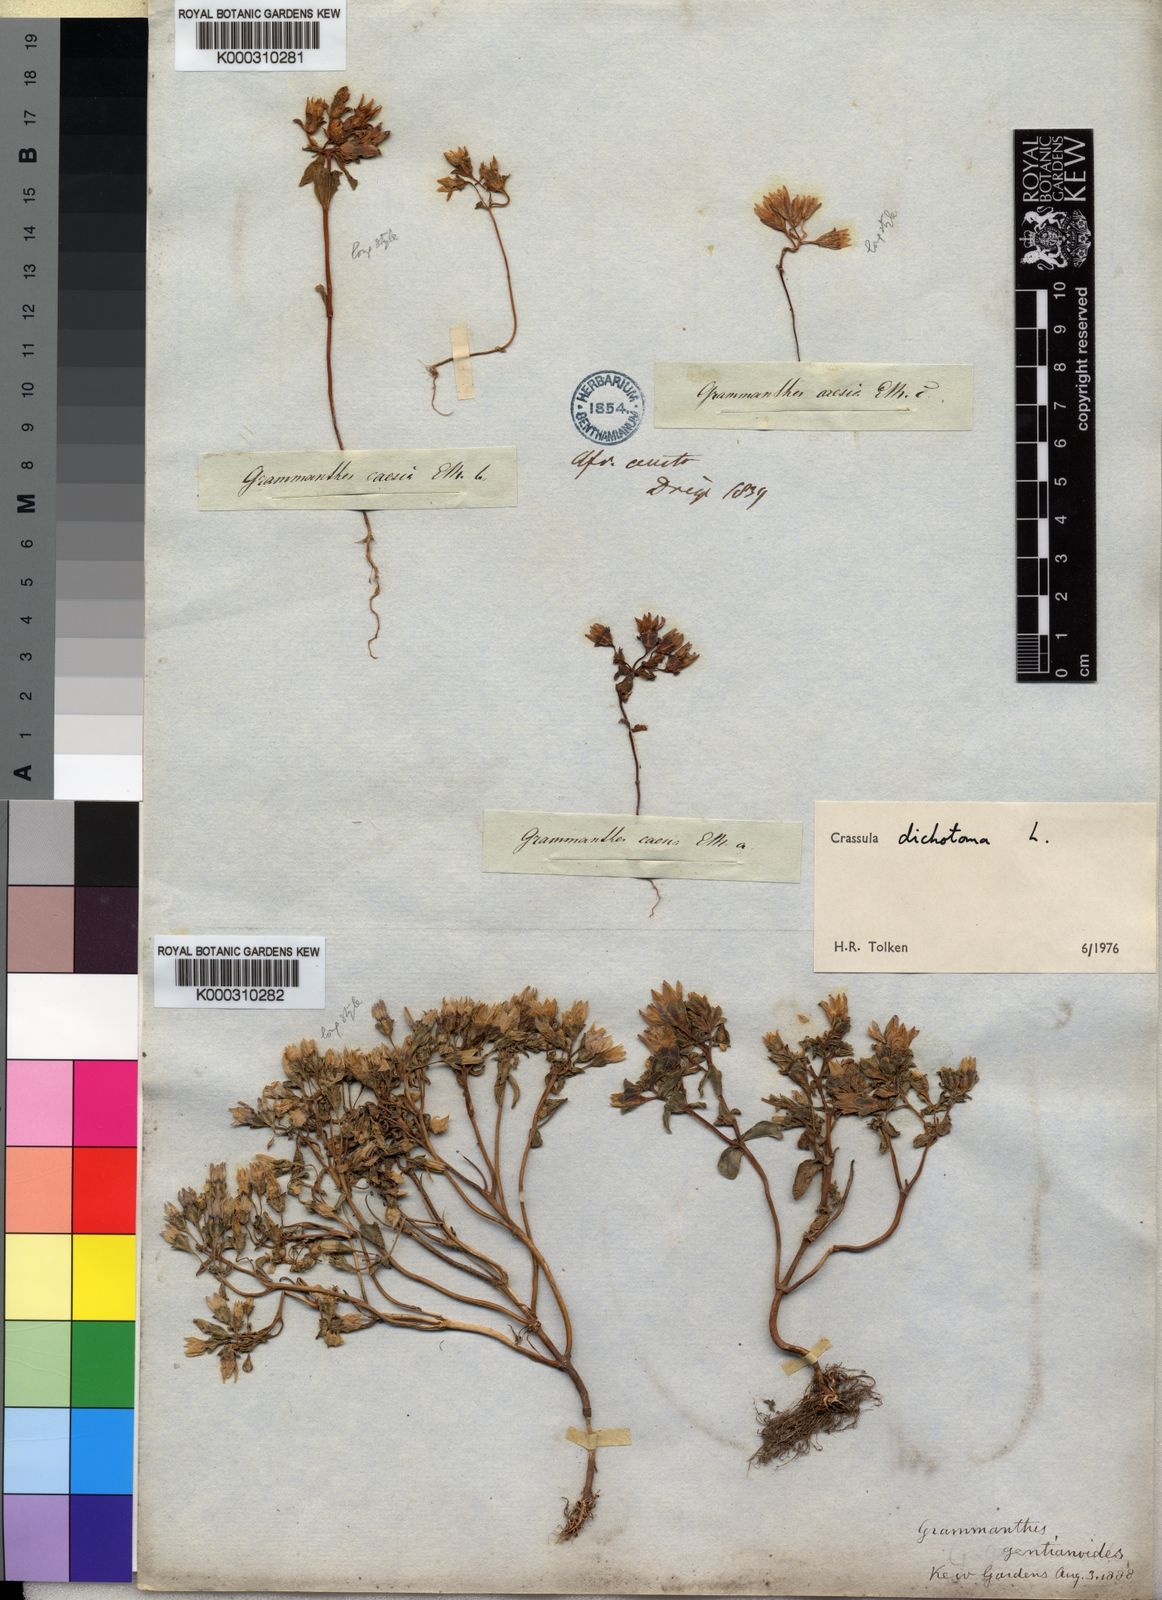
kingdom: Plantae
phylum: Tracheophyta
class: Magnoliopsida
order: Saxifragales
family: Crassulaceae
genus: Crassula
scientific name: Crassula dichotoma
